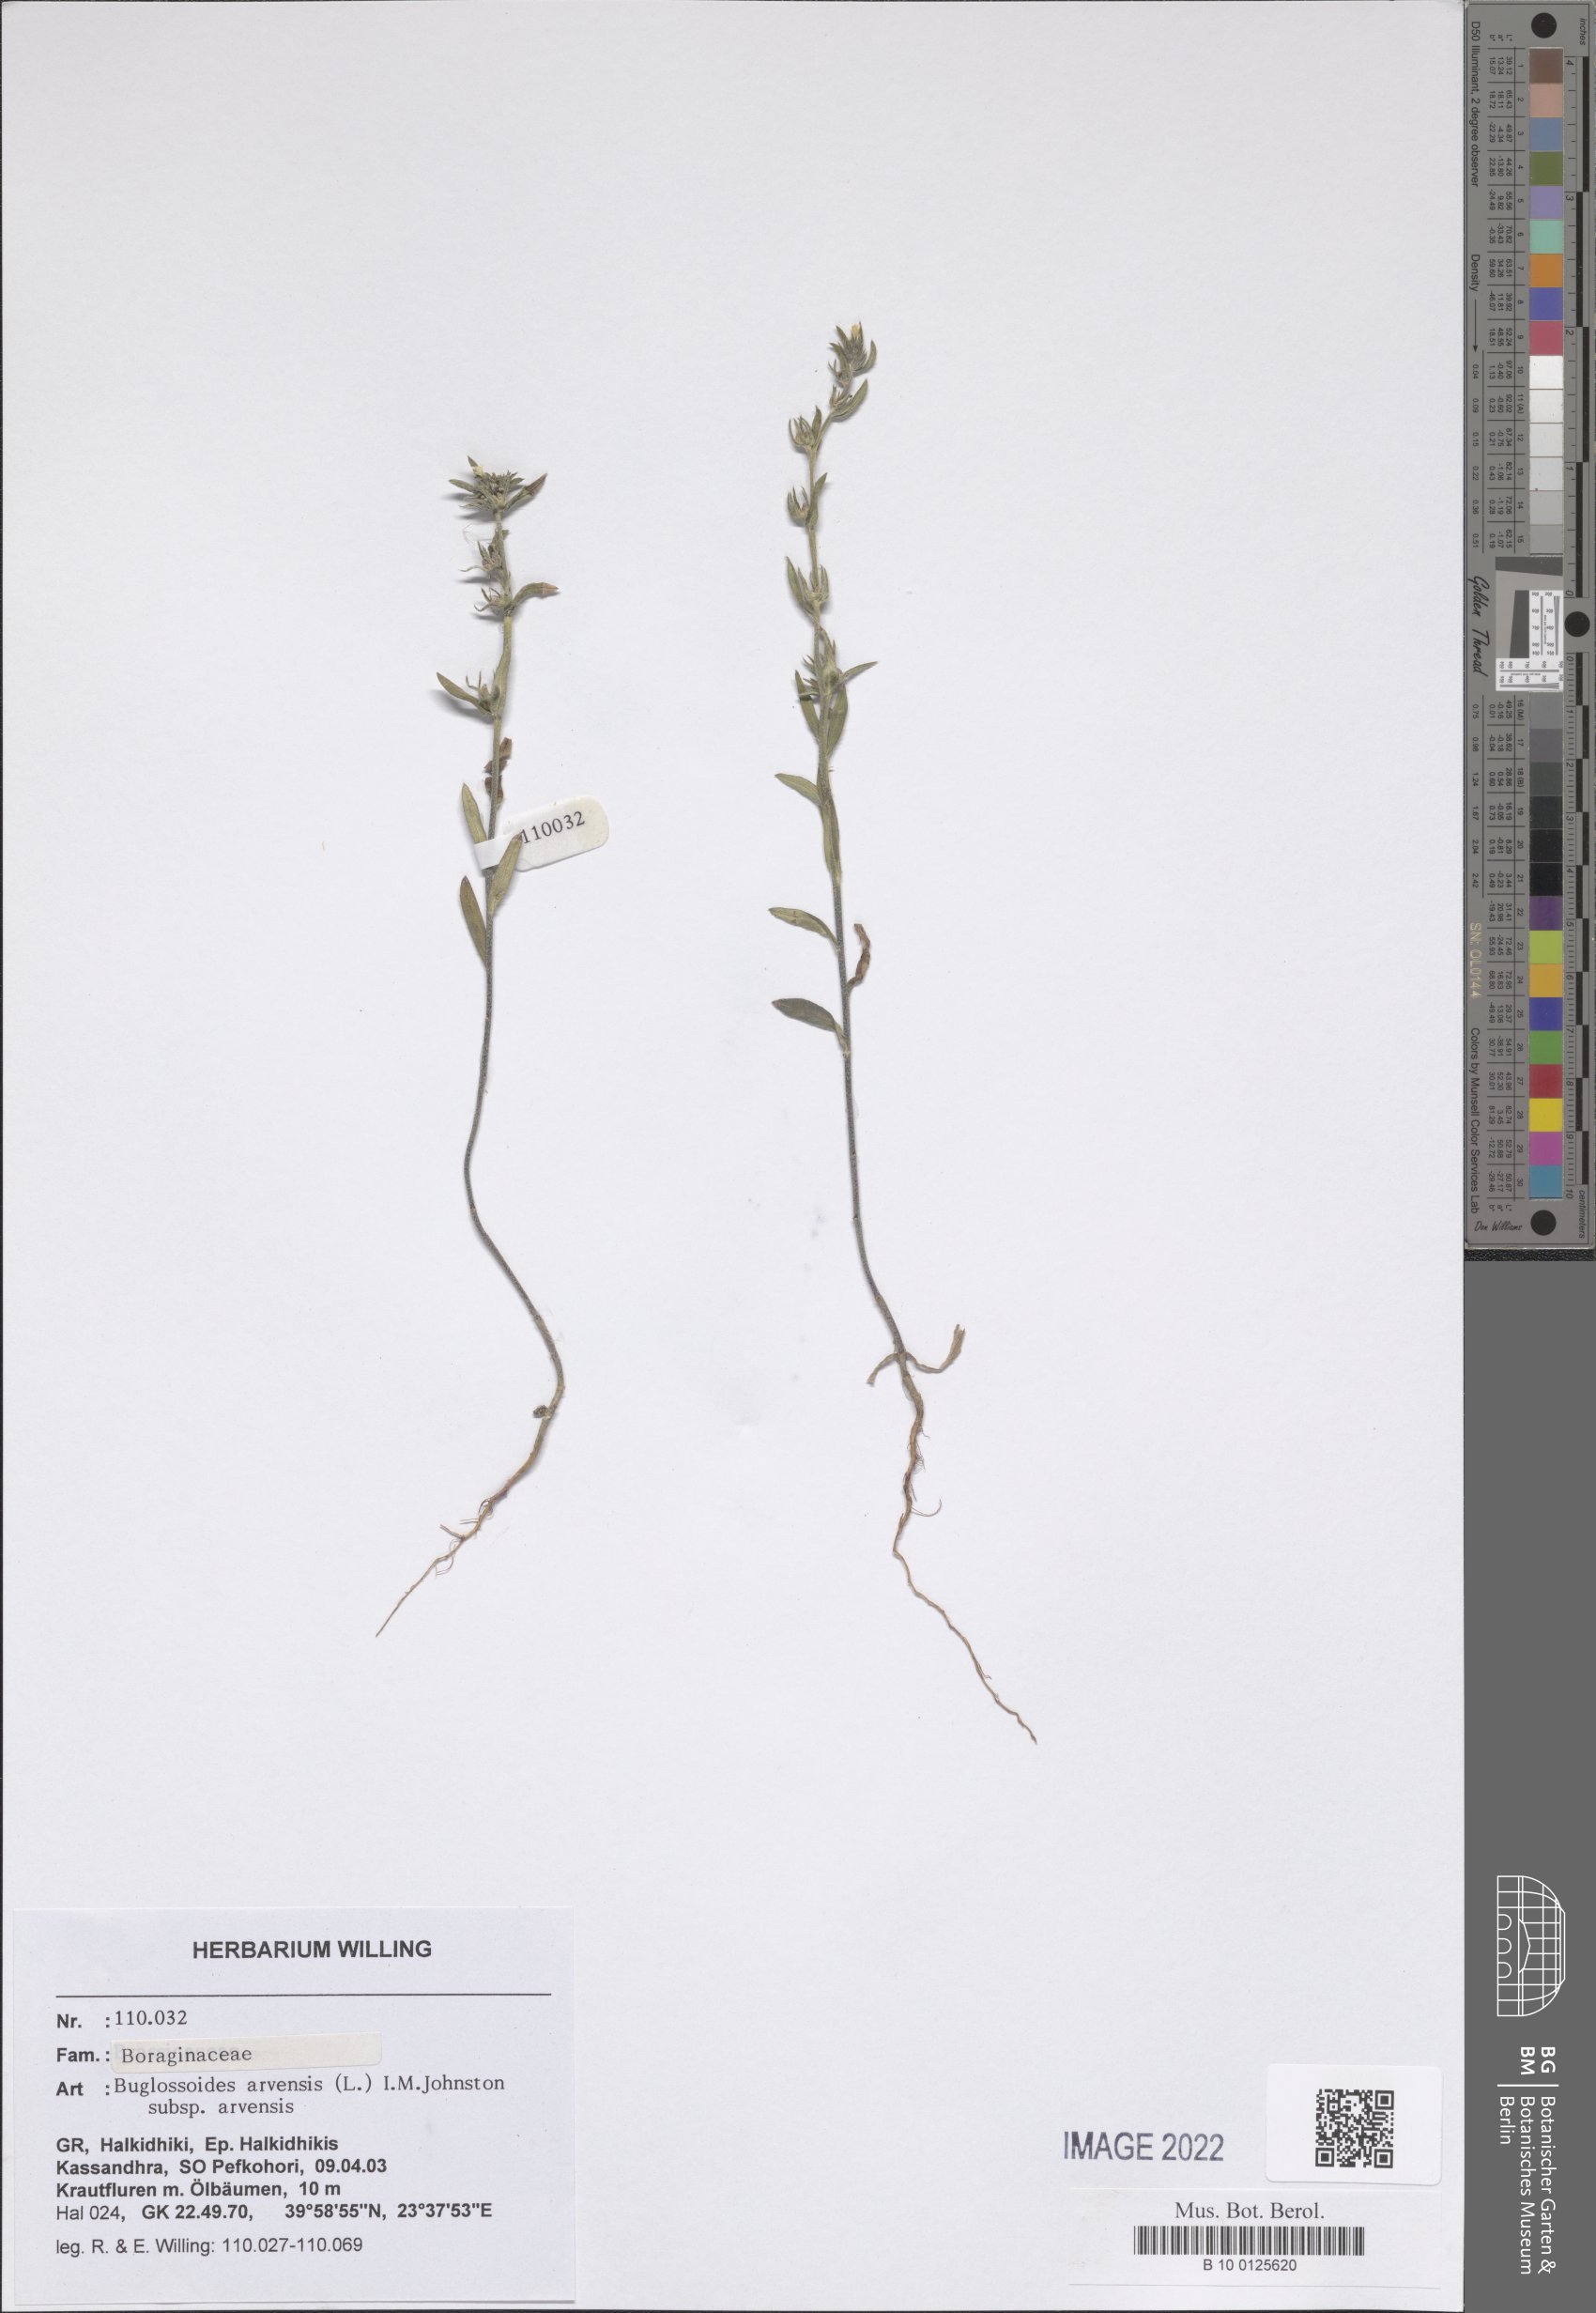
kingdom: Plantae
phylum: Tracheophyta
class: Magnoliopsida
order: Boraginales
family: Boraginaceae
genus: Buglossoides
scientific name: Buglossoides arvensis
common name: Corn gromwell
